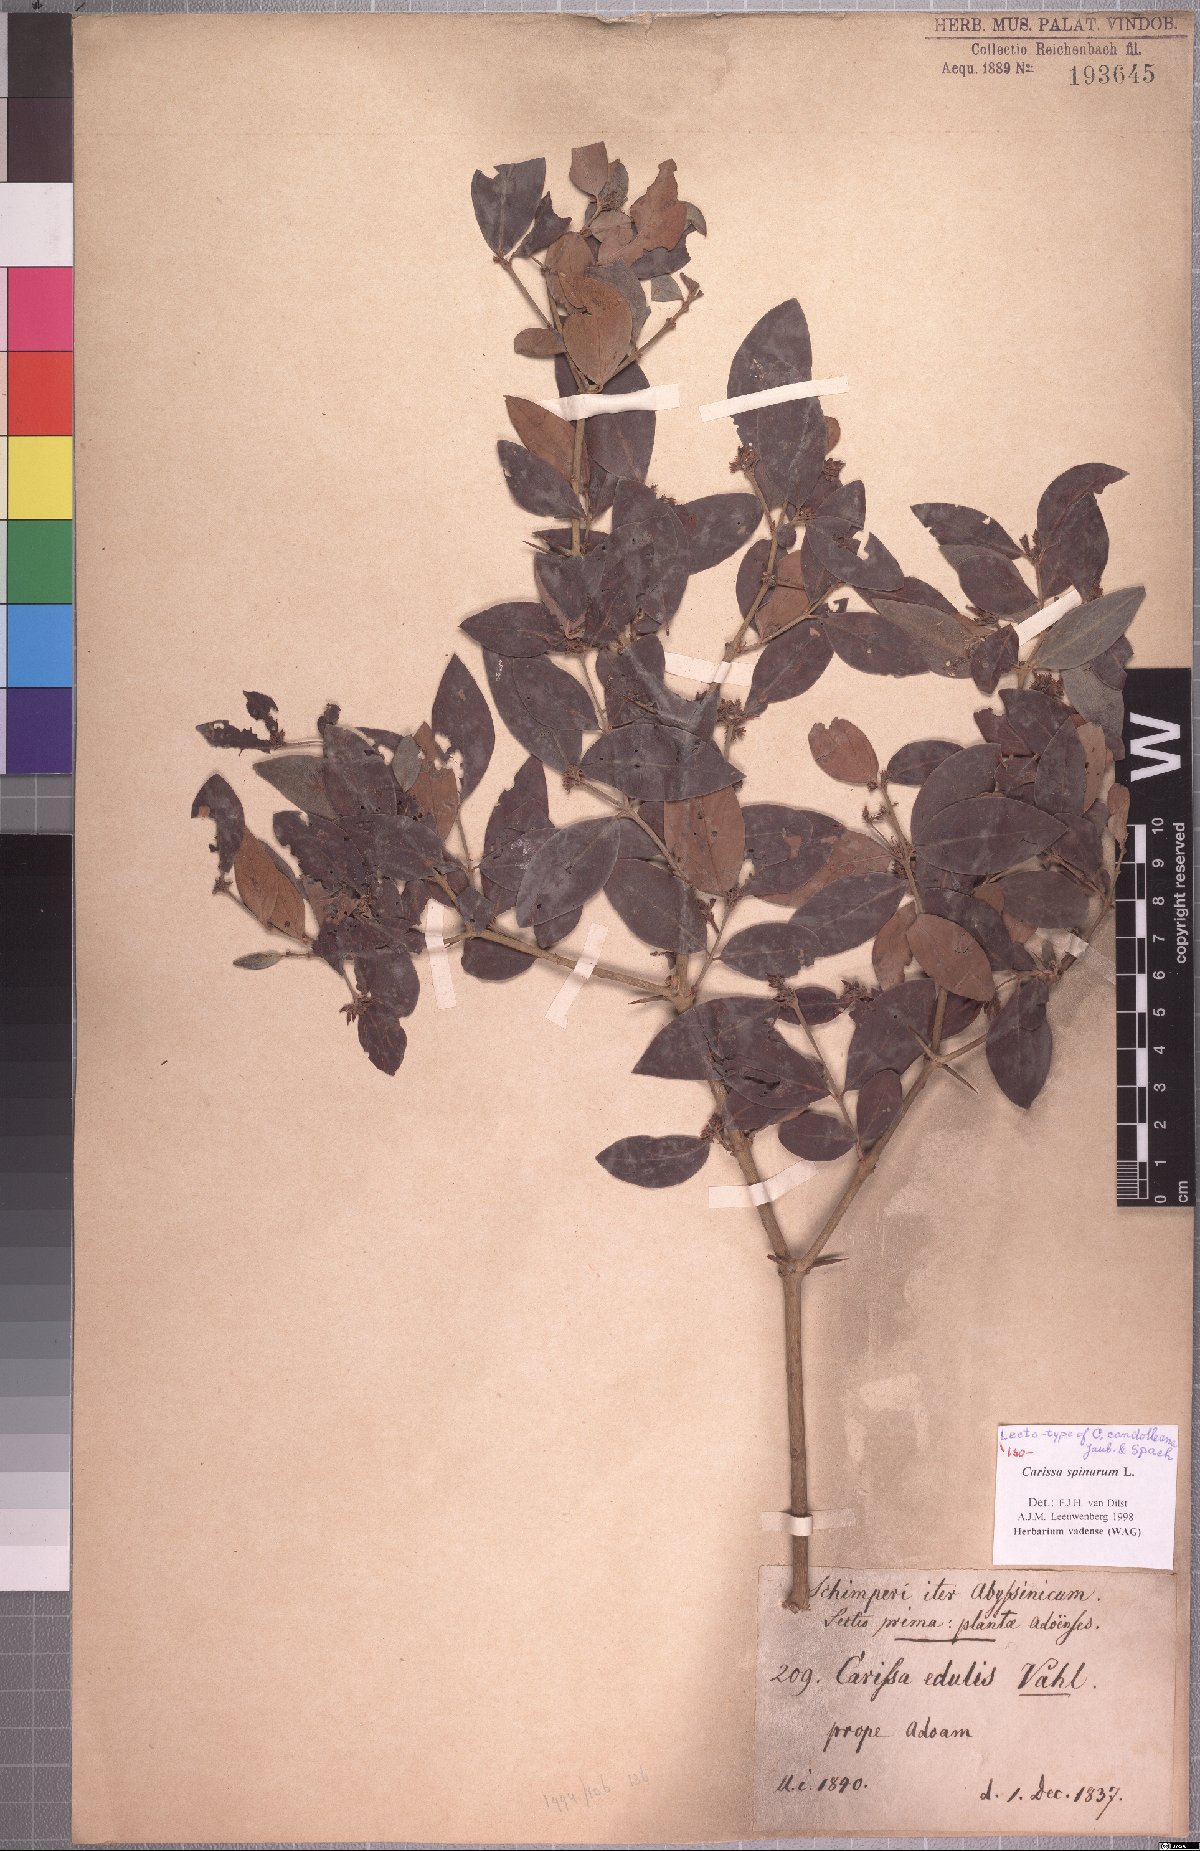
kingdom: Plantae
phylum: Tracheophyta
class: Magnoliopsida
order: Gentianales
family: Apocynaceae
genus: Carissa
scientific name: Carissa spinarum
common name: Egyptian carissa
